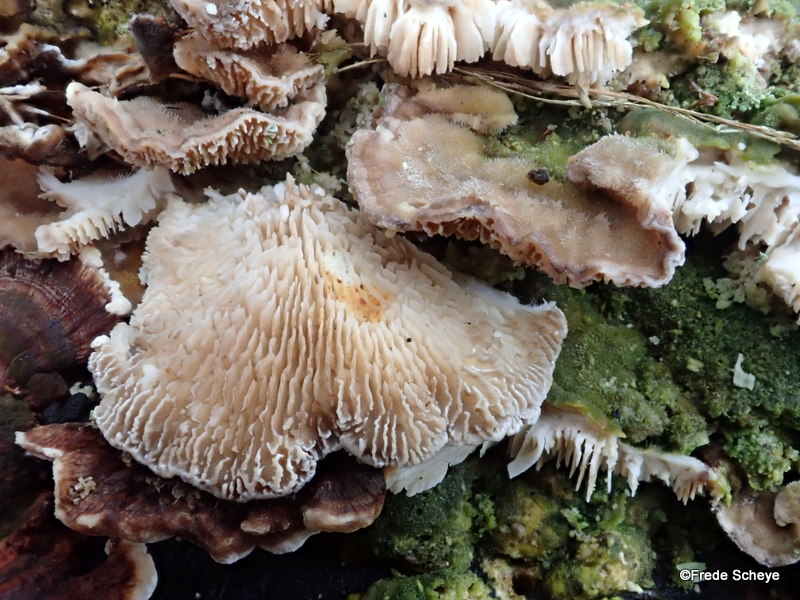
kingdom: Fungi
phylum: Basidiomycota
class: Agaricomycetes
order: Polyporales
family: Polyporaceae
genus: Lenzites
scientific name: Lenzites betulinus
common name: birke-læderporesvamp
